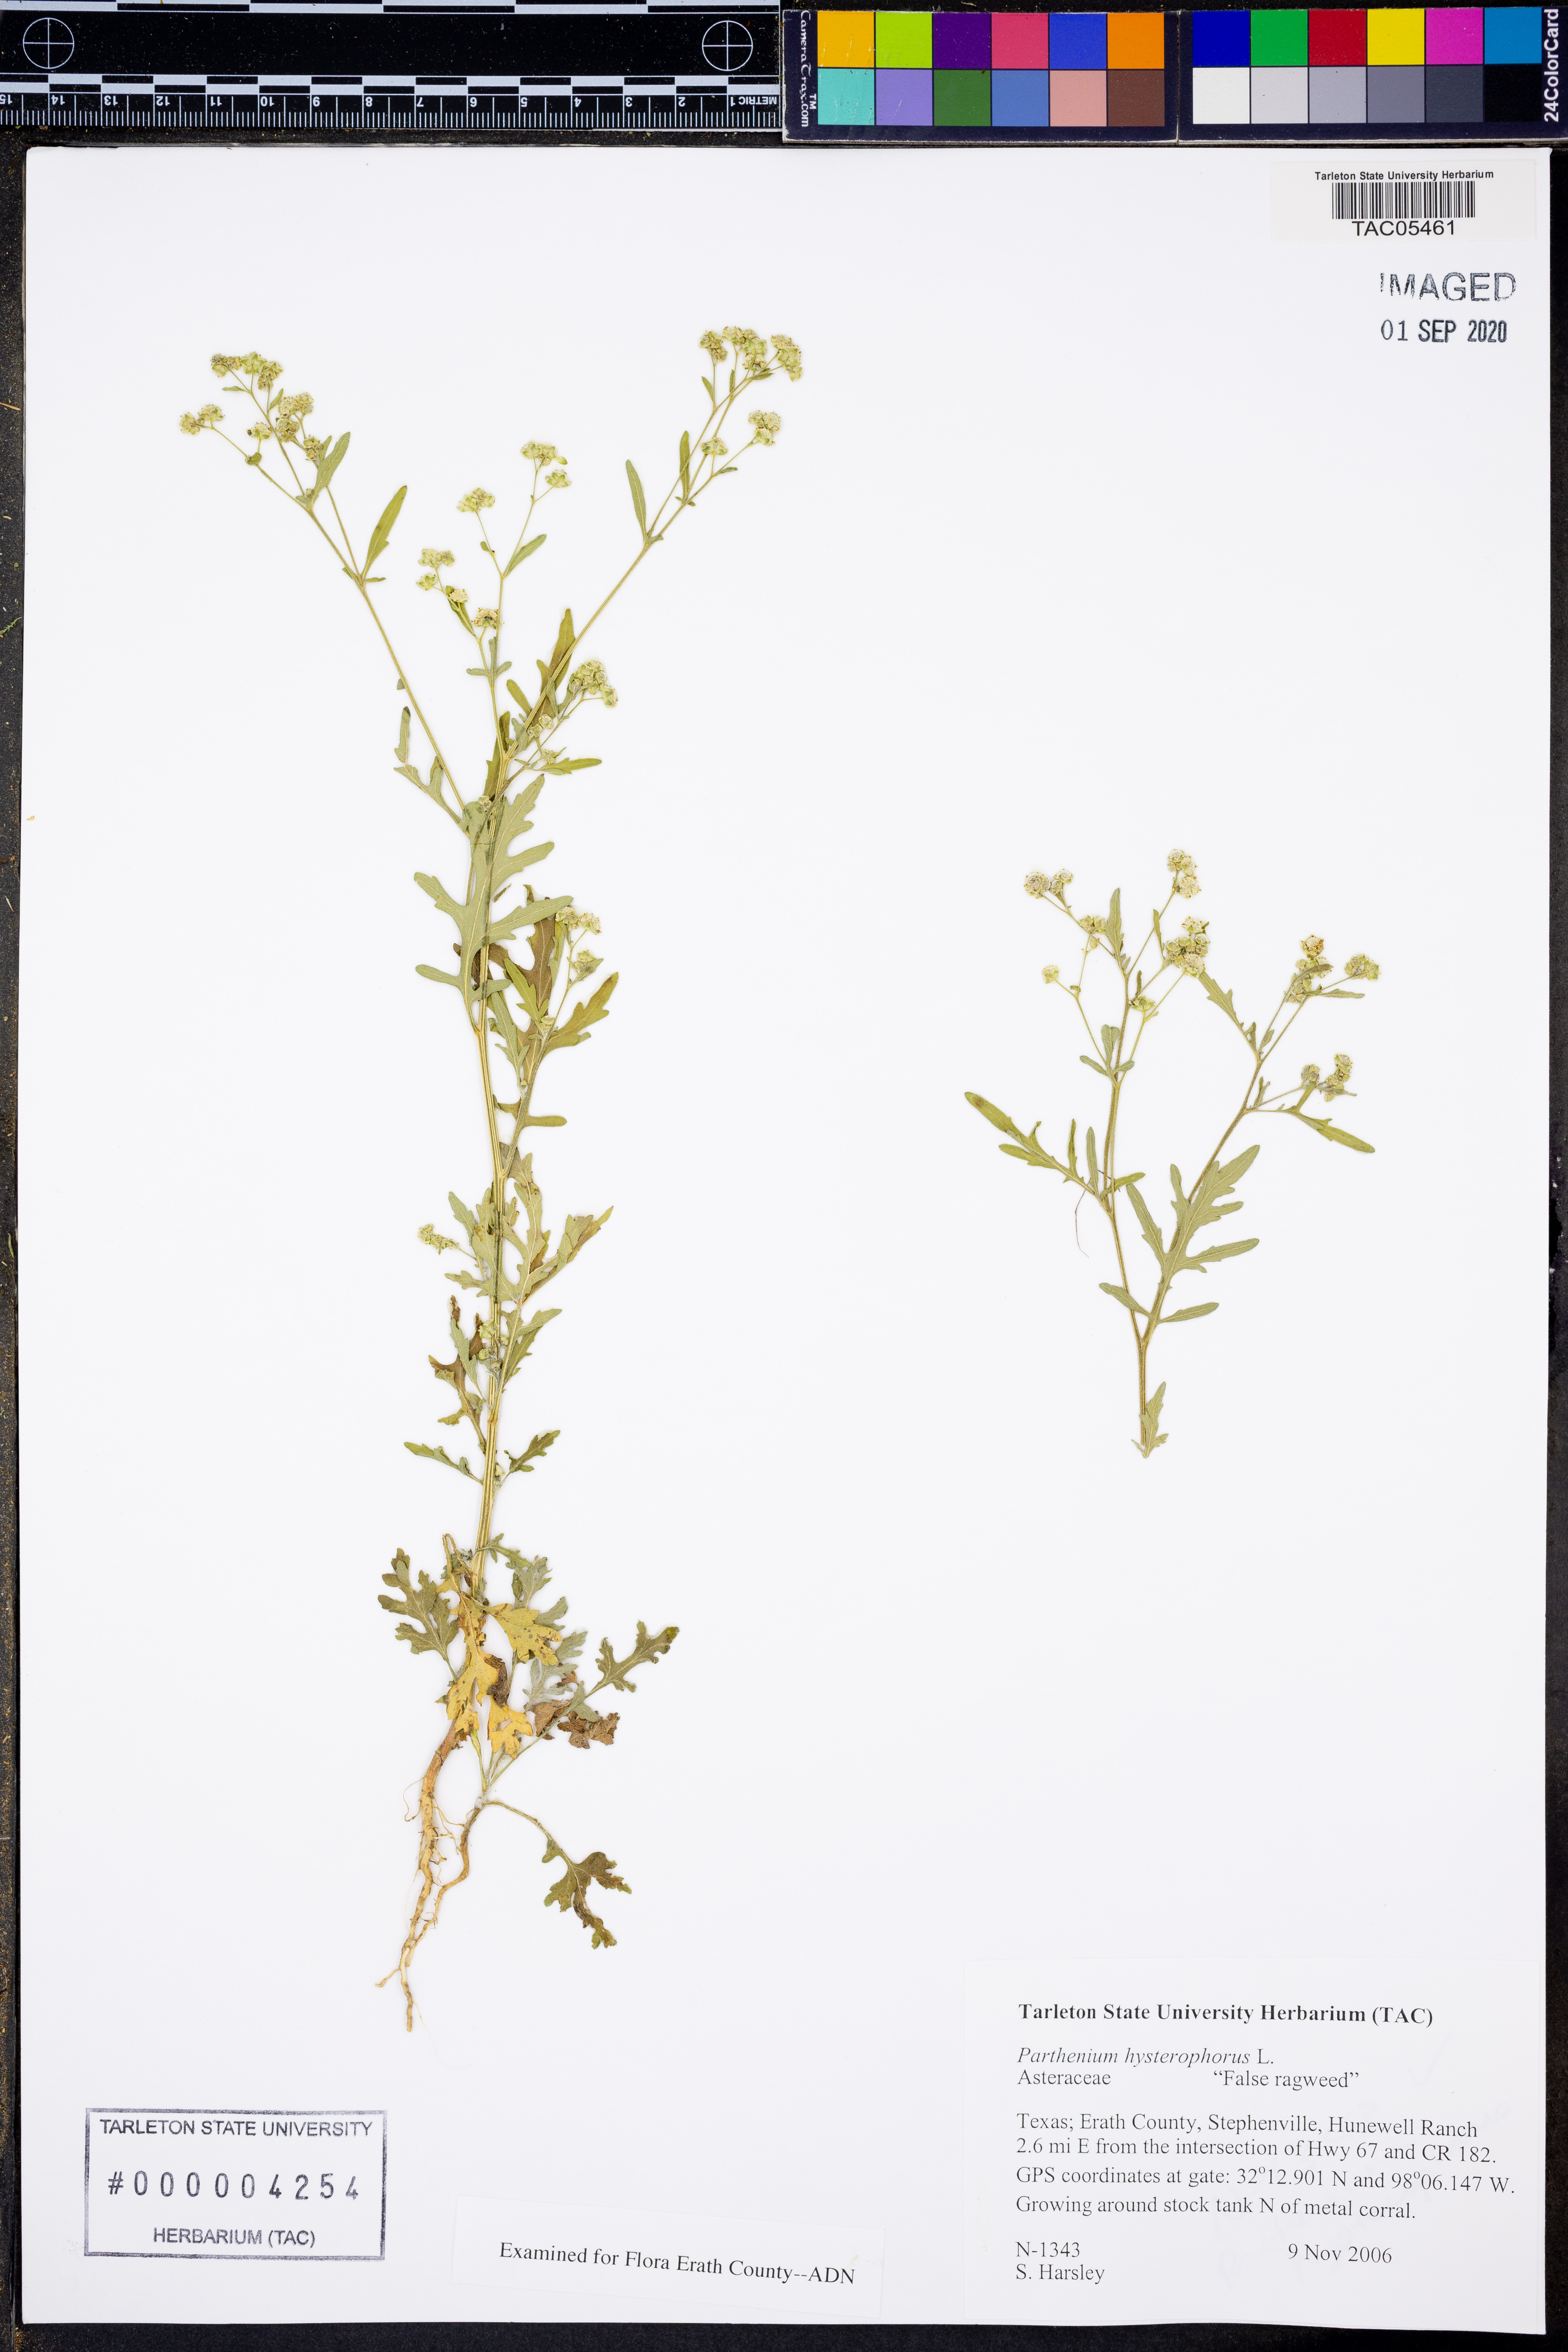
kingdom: Plantae
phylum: Tracheophyta
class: Magnoliopsida
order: Asterales
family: Asteraceae
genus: Parthenium
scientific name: Parthenium hysterophorus
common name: Santa maria feverfew
